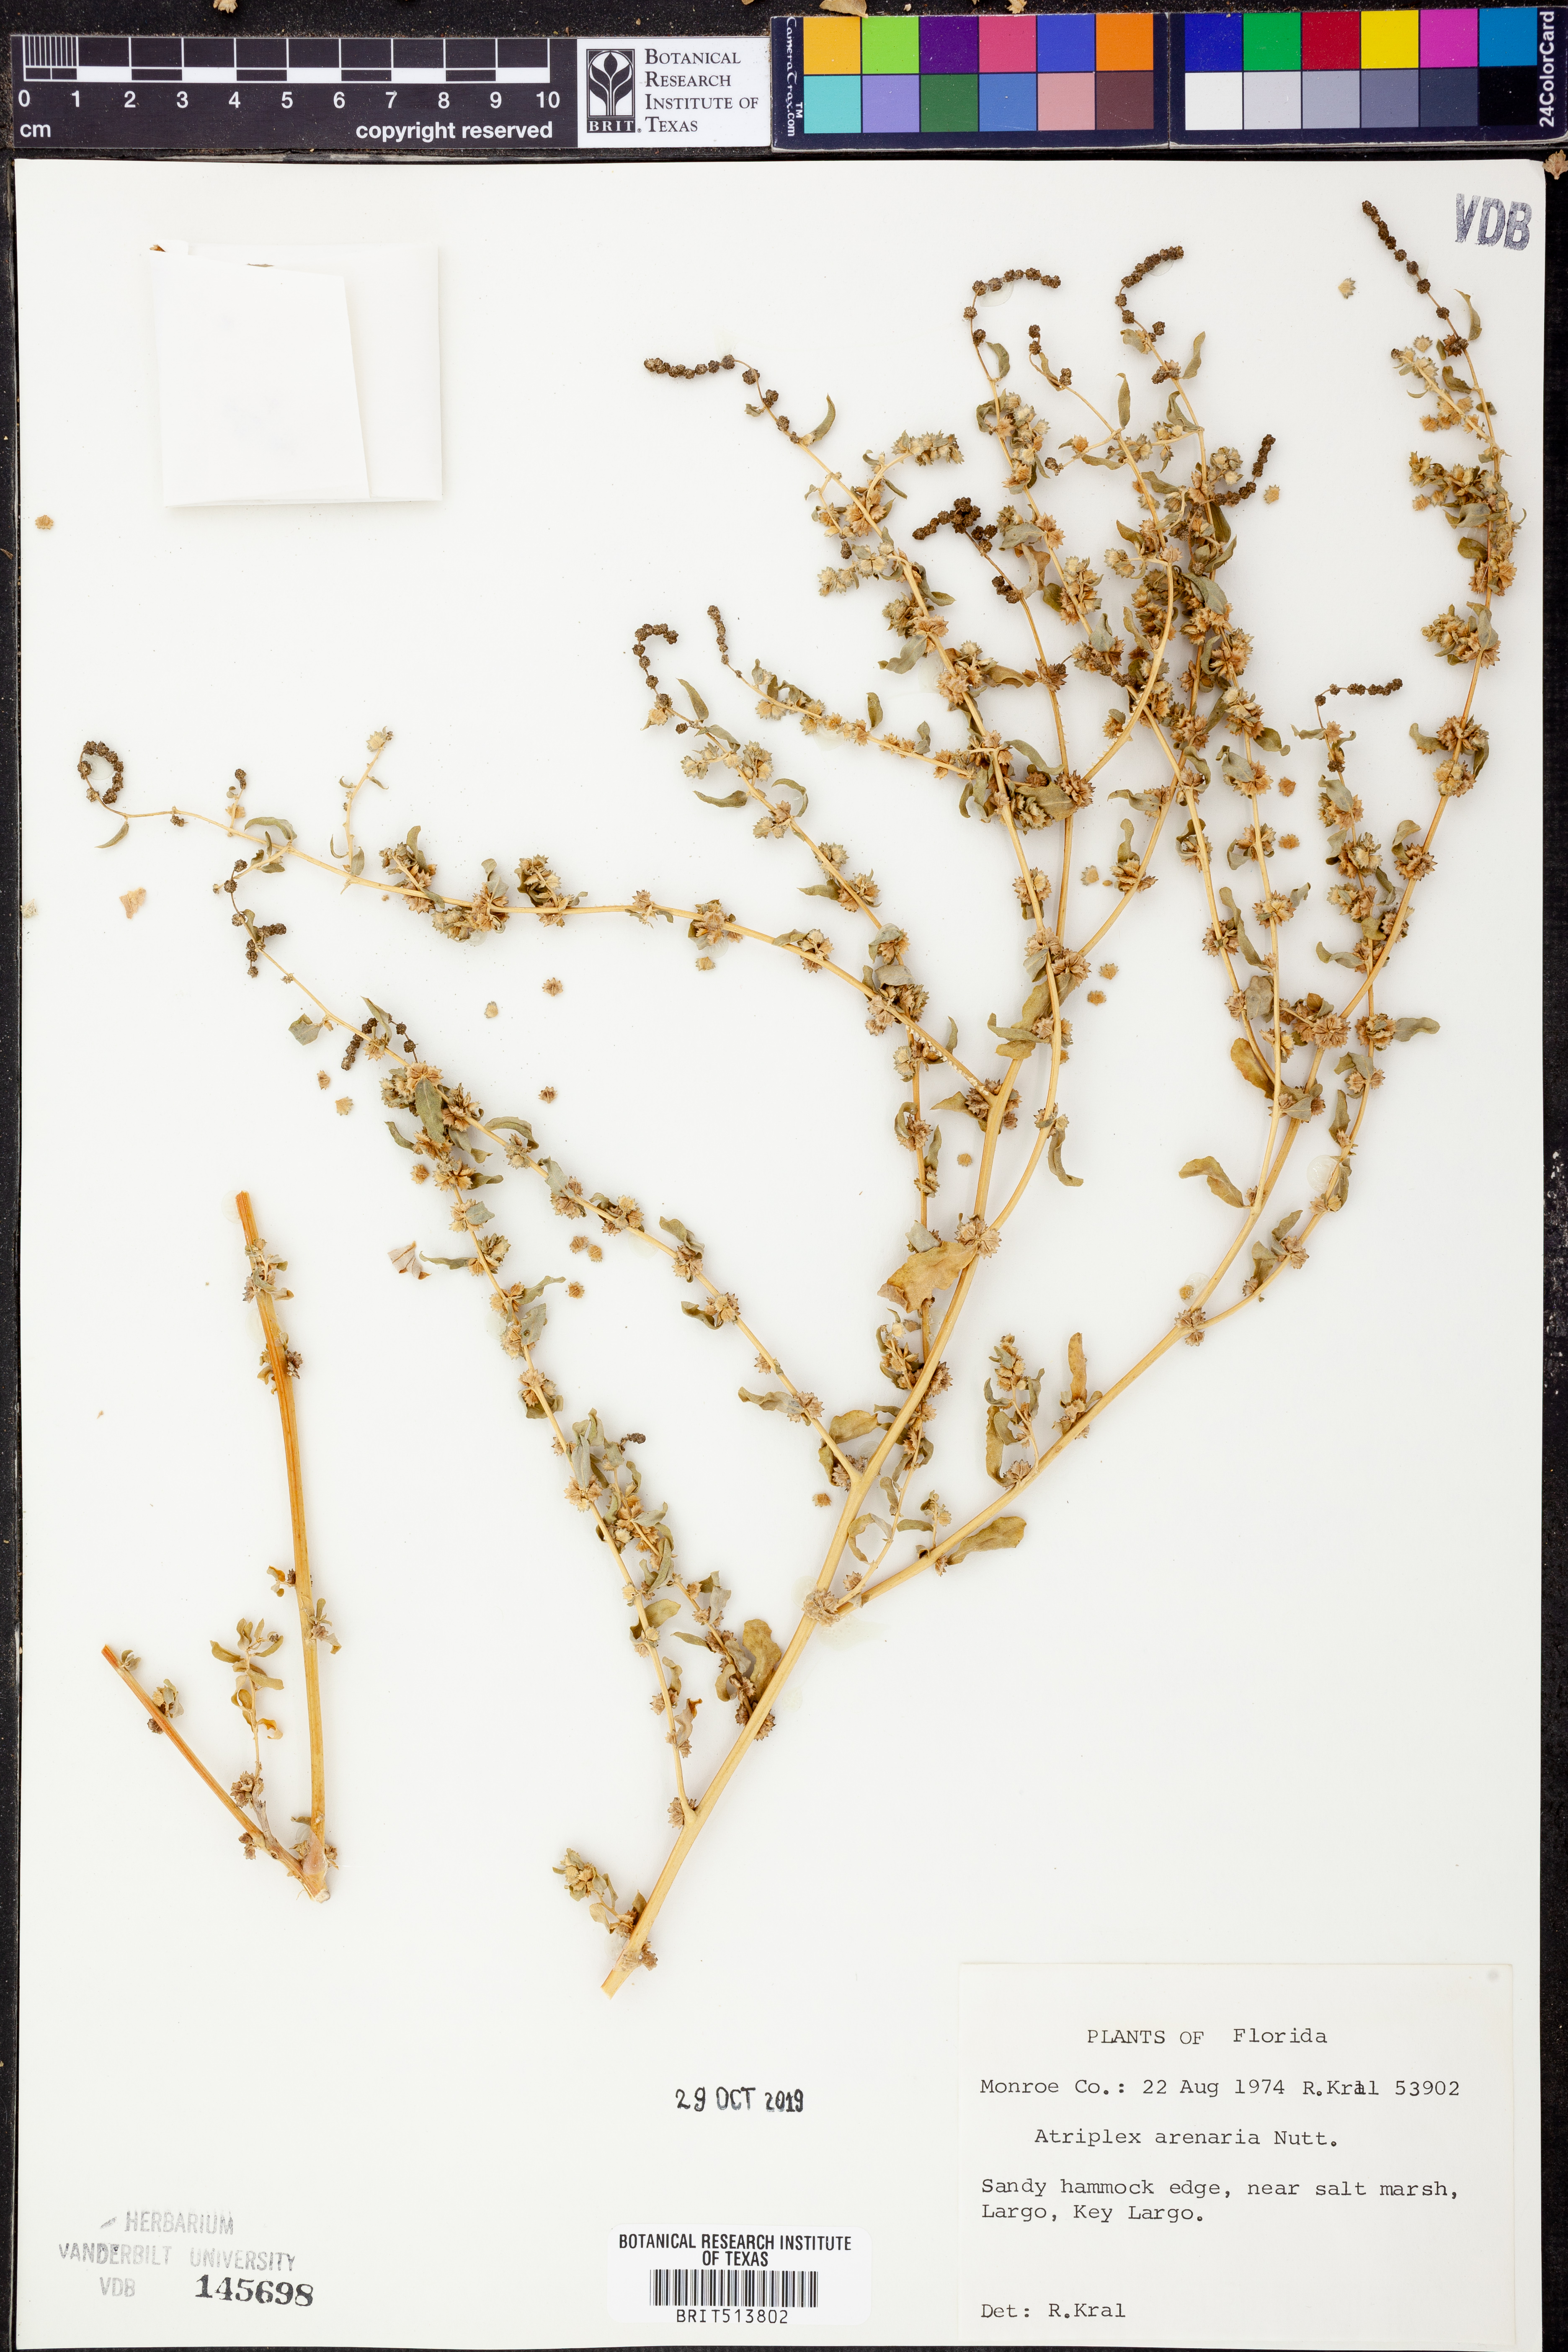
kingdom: Plantae
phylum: Tracheophyta
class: Magnoliopsida
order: Caryophyllales
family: Amaranthaceae
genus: Atriplex
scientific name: Atriplex mucronata
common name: Quelite
